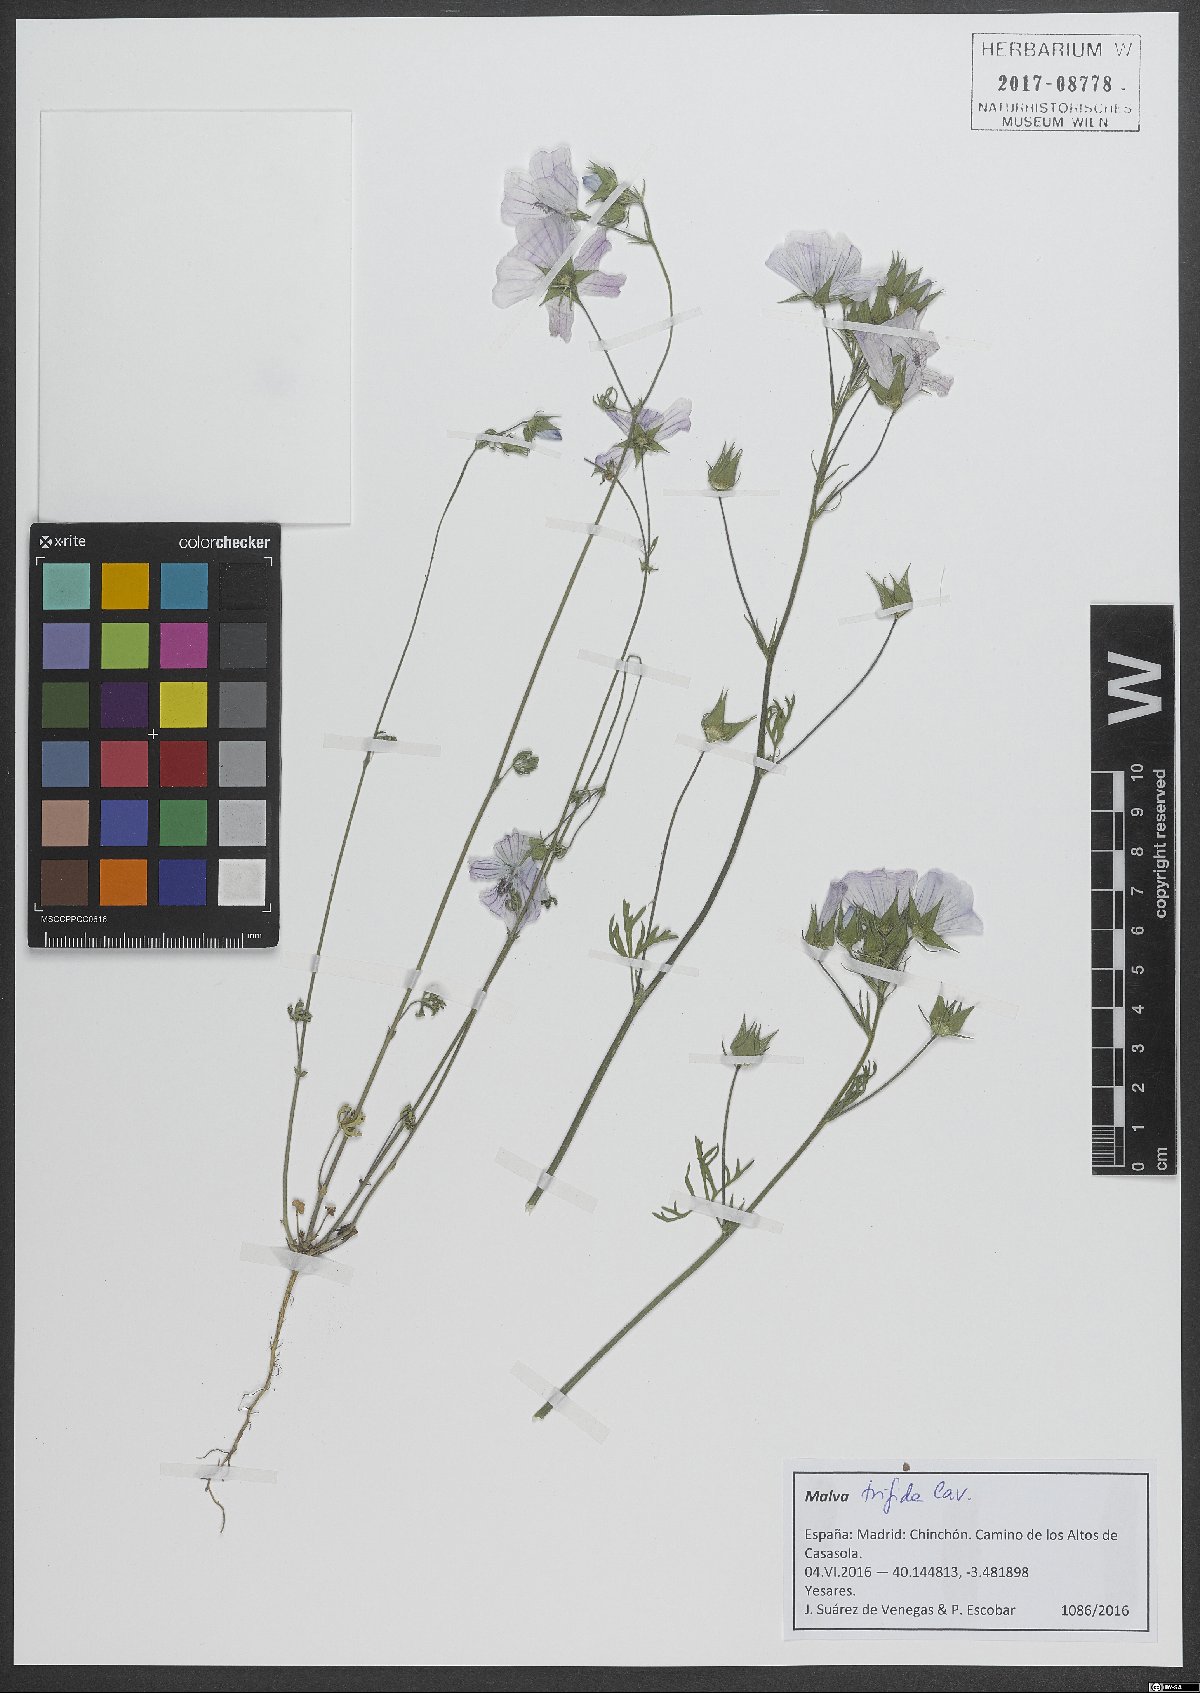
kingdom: Plantae
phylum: Tracheophyta
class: Magnoliopsida
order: Malvales
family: Malvaceae
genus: Malva
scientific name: Malva trifida
